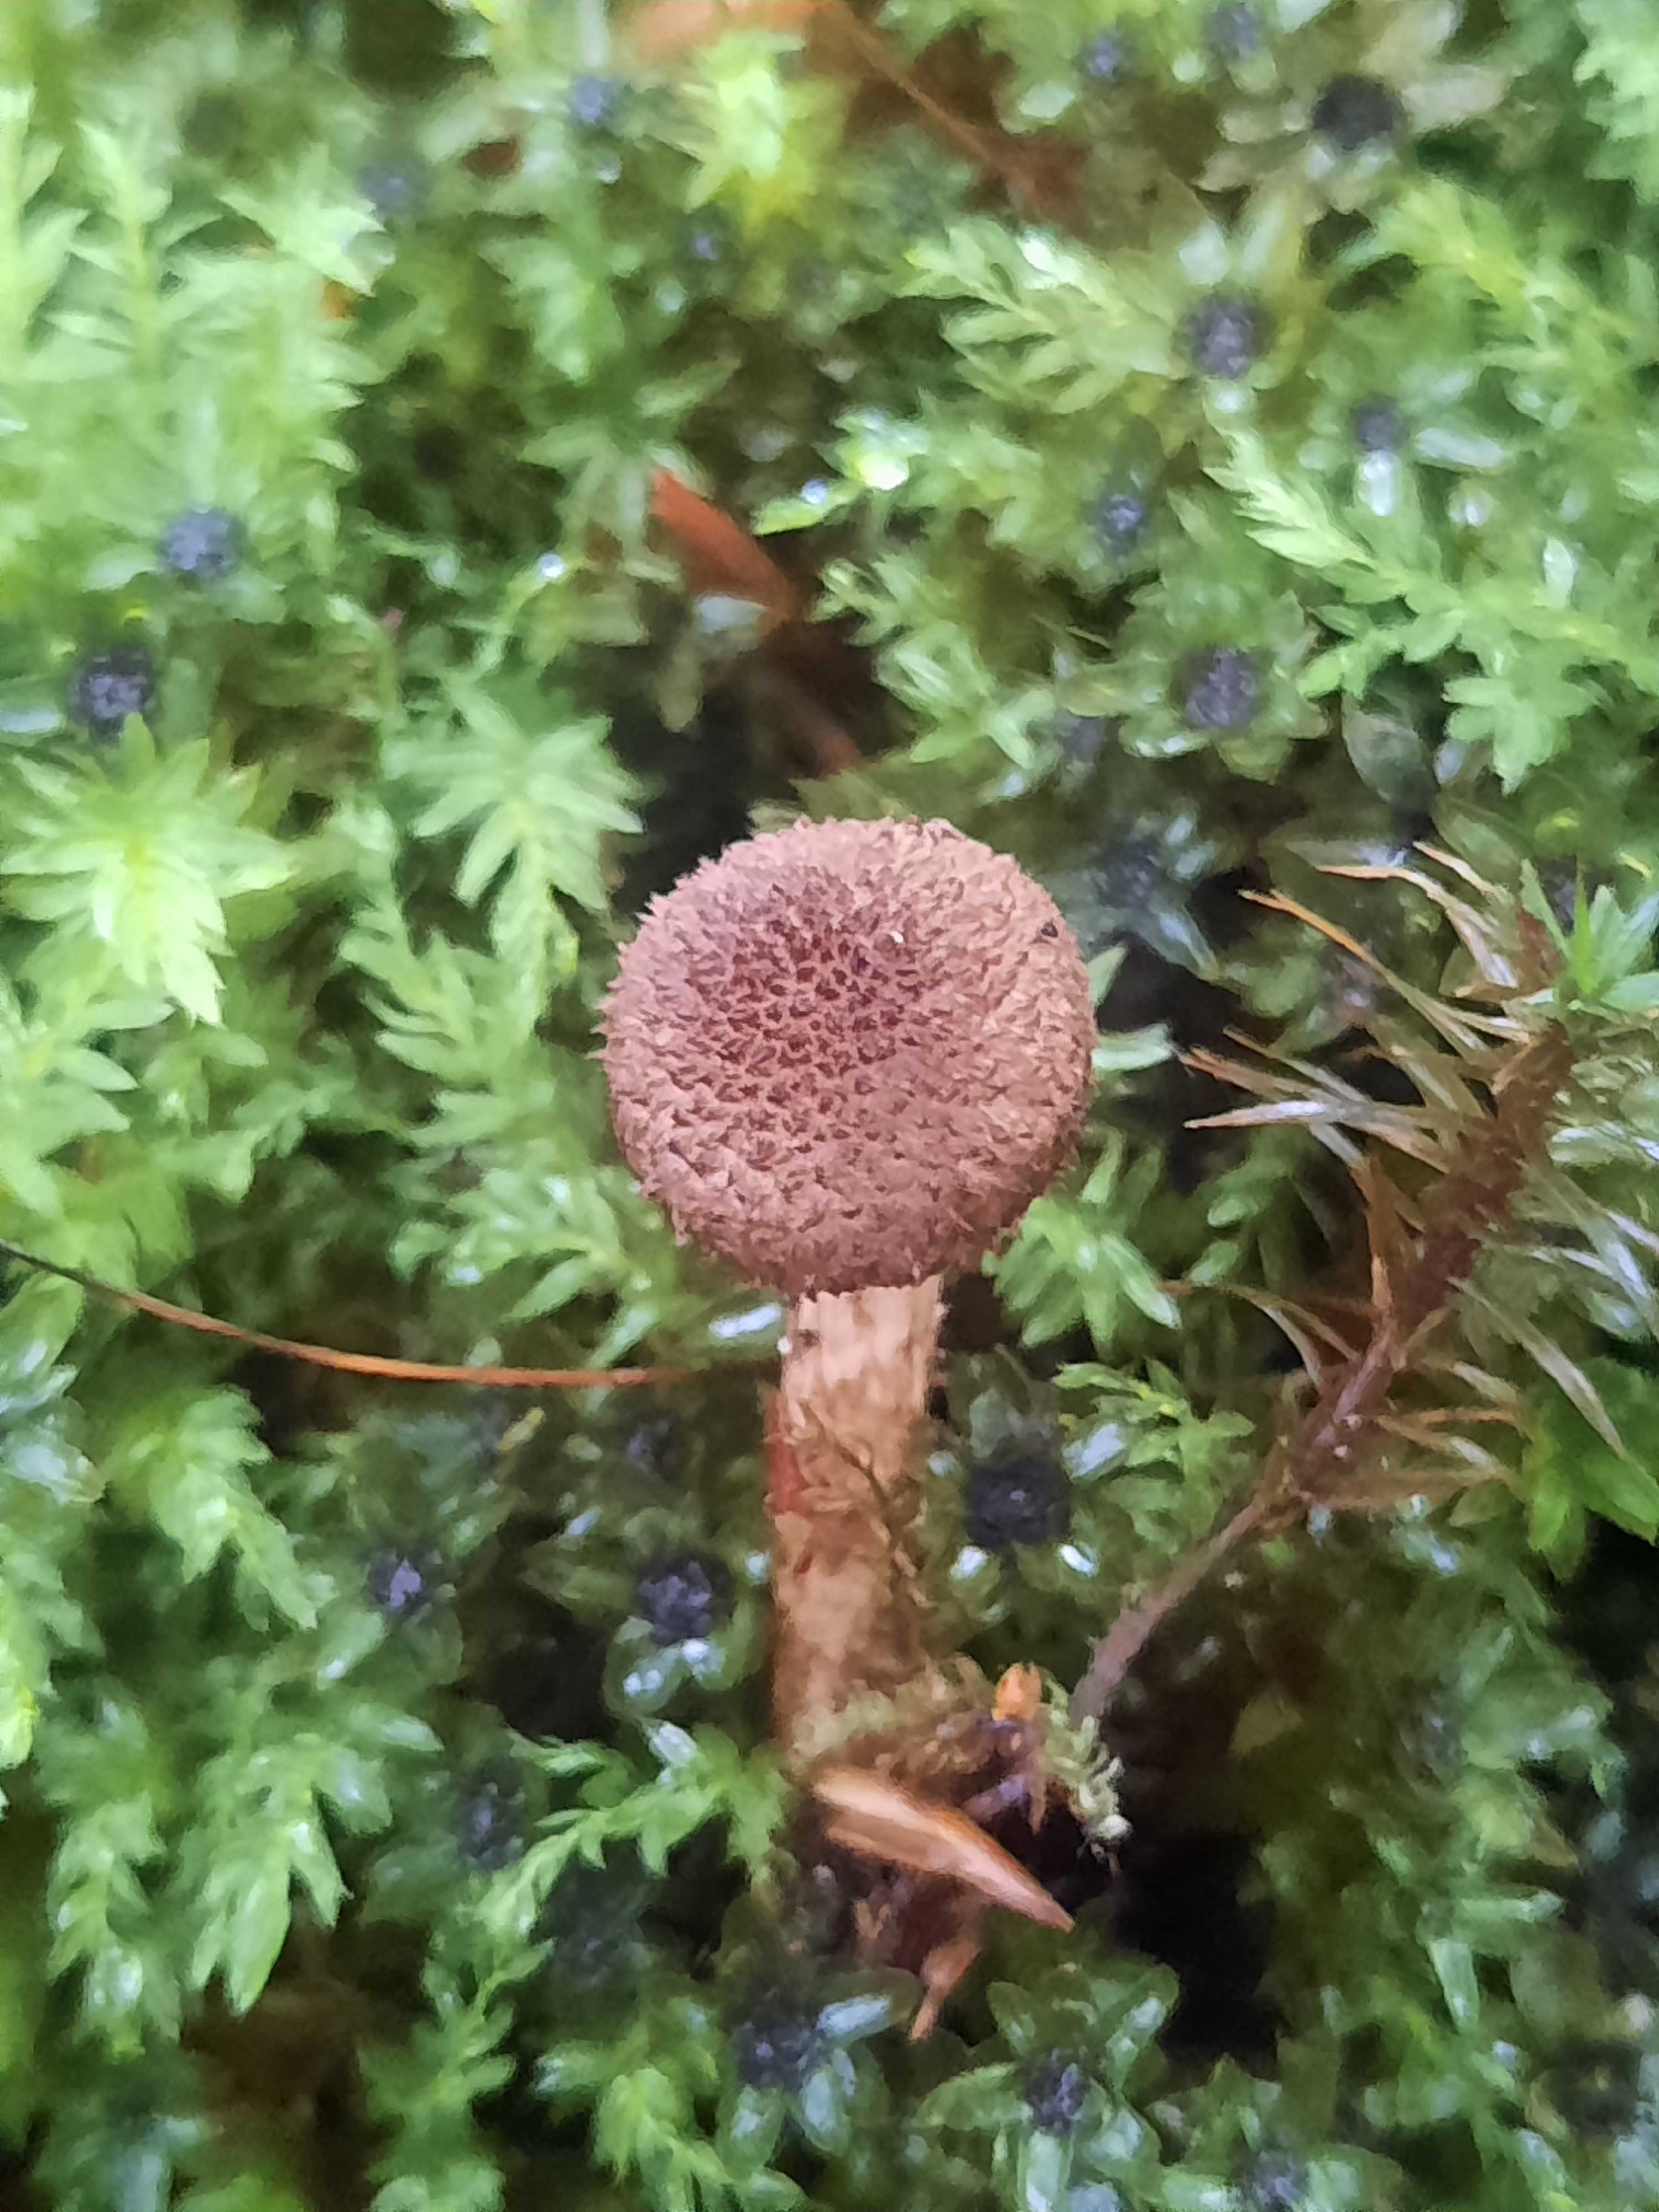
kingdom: Fungi
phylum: Basidiomycota
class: Agaricomycetes
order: Agaricales
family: Inocybaceae
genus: Inocybe
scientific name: Inocybe
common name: trævlhat
